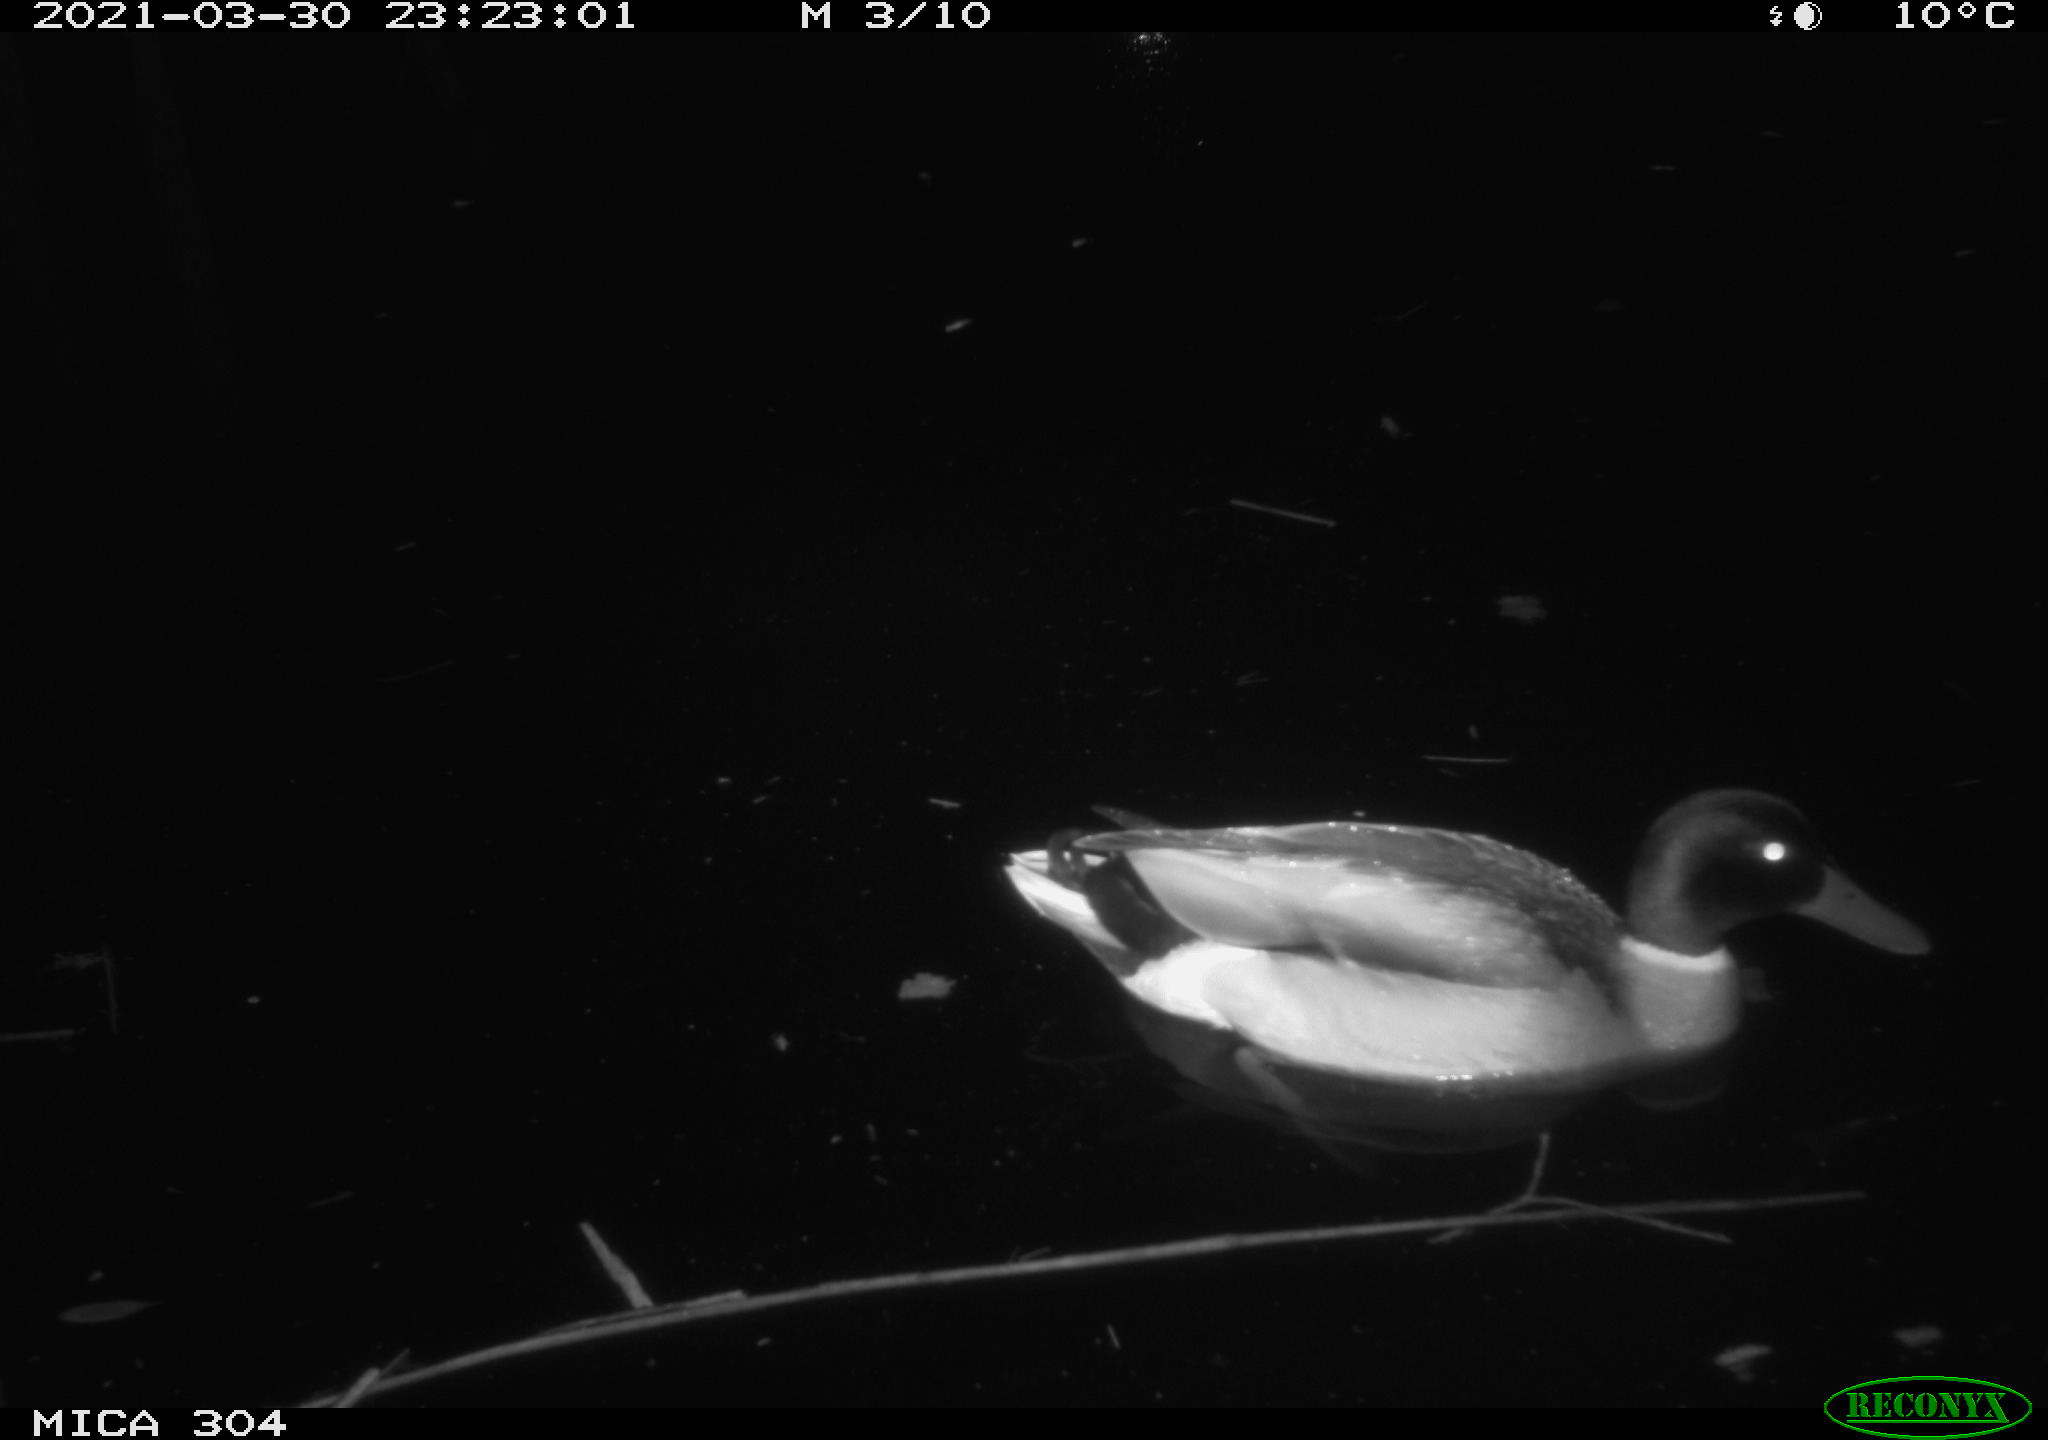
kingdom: Animalia
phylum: Chordata
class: Aves
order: Anseriformes
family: Anatidae
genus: Anas
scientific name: Anas platyrhynchos
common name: Mallard
